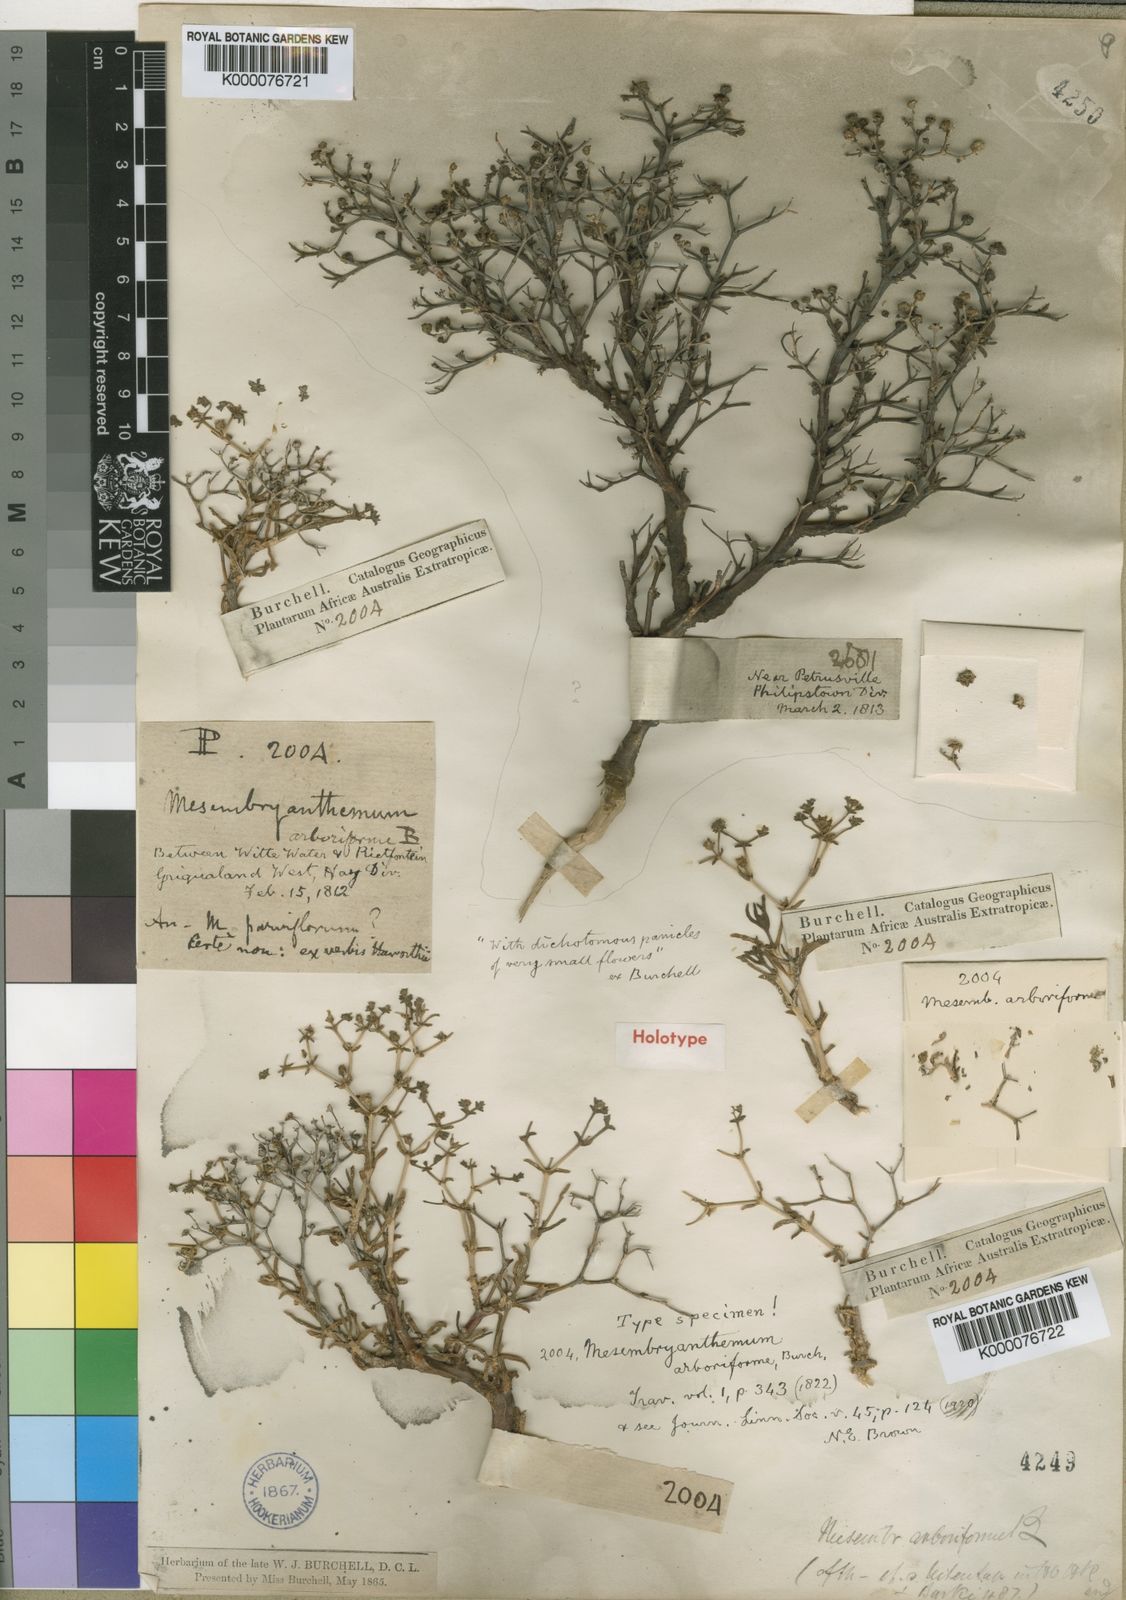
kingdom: Plantae
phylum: Tracheophyta
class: Magnoliopsida
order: Caryophyllales
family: Aizoaceae
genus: Mestoklema
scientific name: Mestoklema
